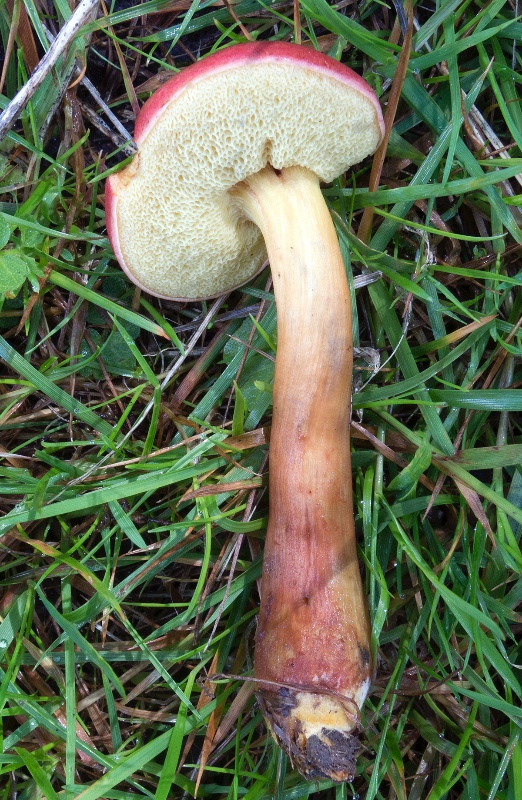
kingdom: Fungi
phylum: Basidiomycota
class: Agaricomycetes
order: Boletales
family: Boletaceae
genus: Hortiboletus
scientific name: Hortiboletus rubellus
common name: blodrød rørhat
